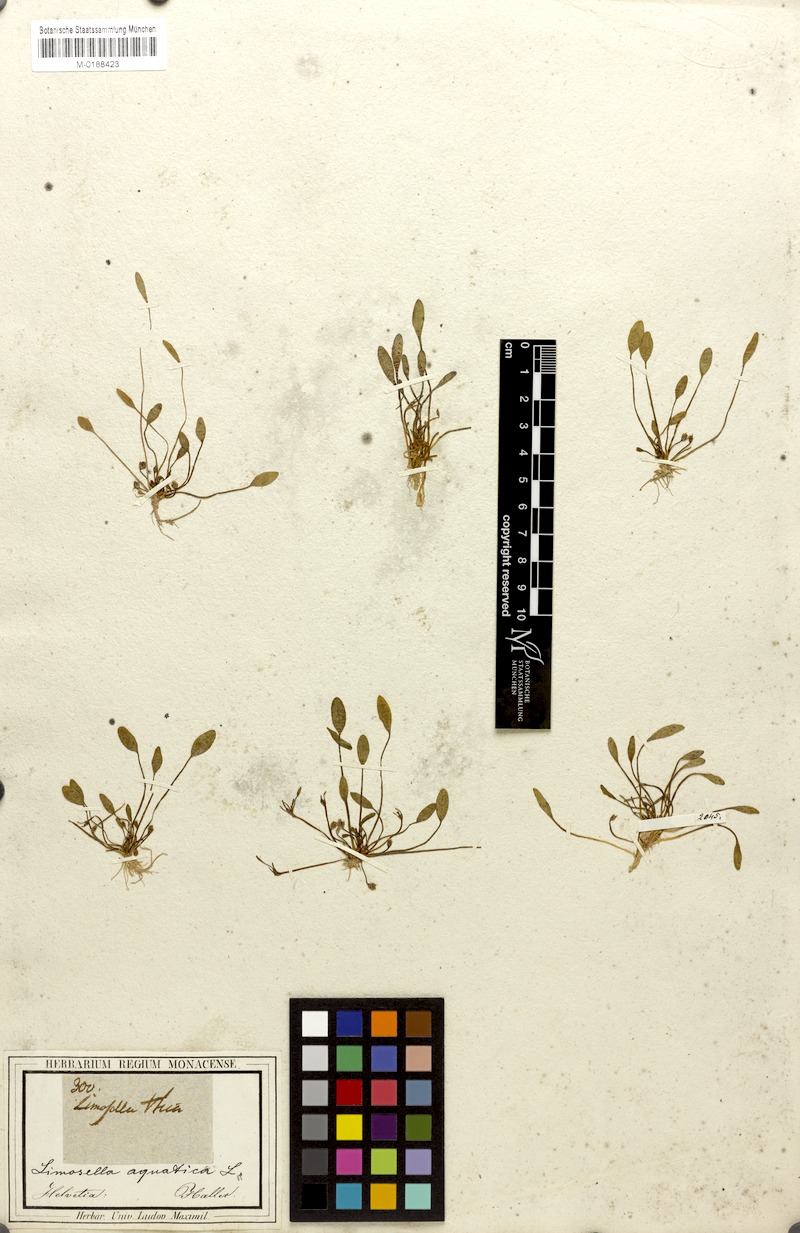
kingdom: Plantae
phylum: Tracheophyta
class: Magnoliopsida
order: Lamiales
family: Scrophulariaceae
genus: Limosella
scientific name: Limosella aquatica
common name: Mudwort
